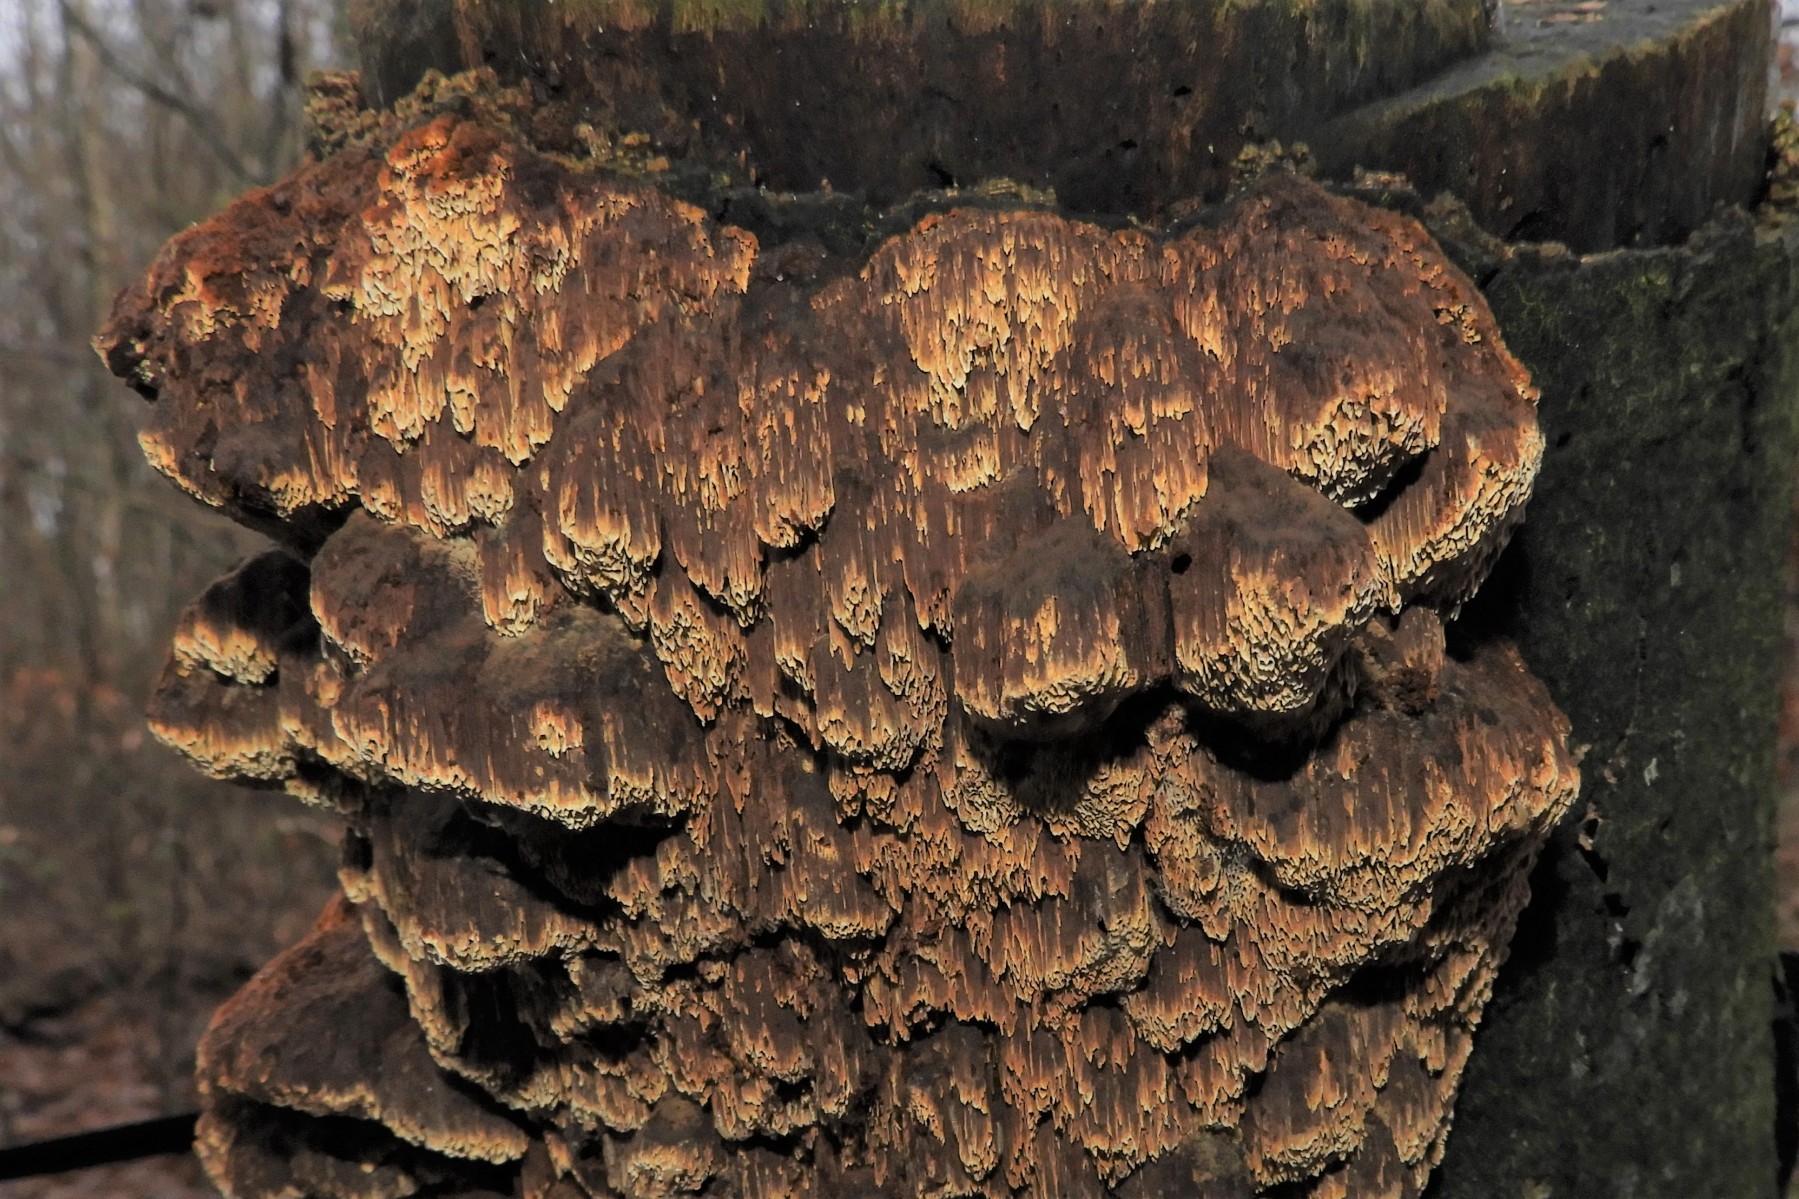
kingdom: Fungi
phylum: Basidiomycota
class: Agaricomycetes
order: Hymenochaetales
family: Hymenochaetaceae
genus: Mensularia
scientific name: Mensularia nodulosa
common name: bøge-spejlporesvamp
